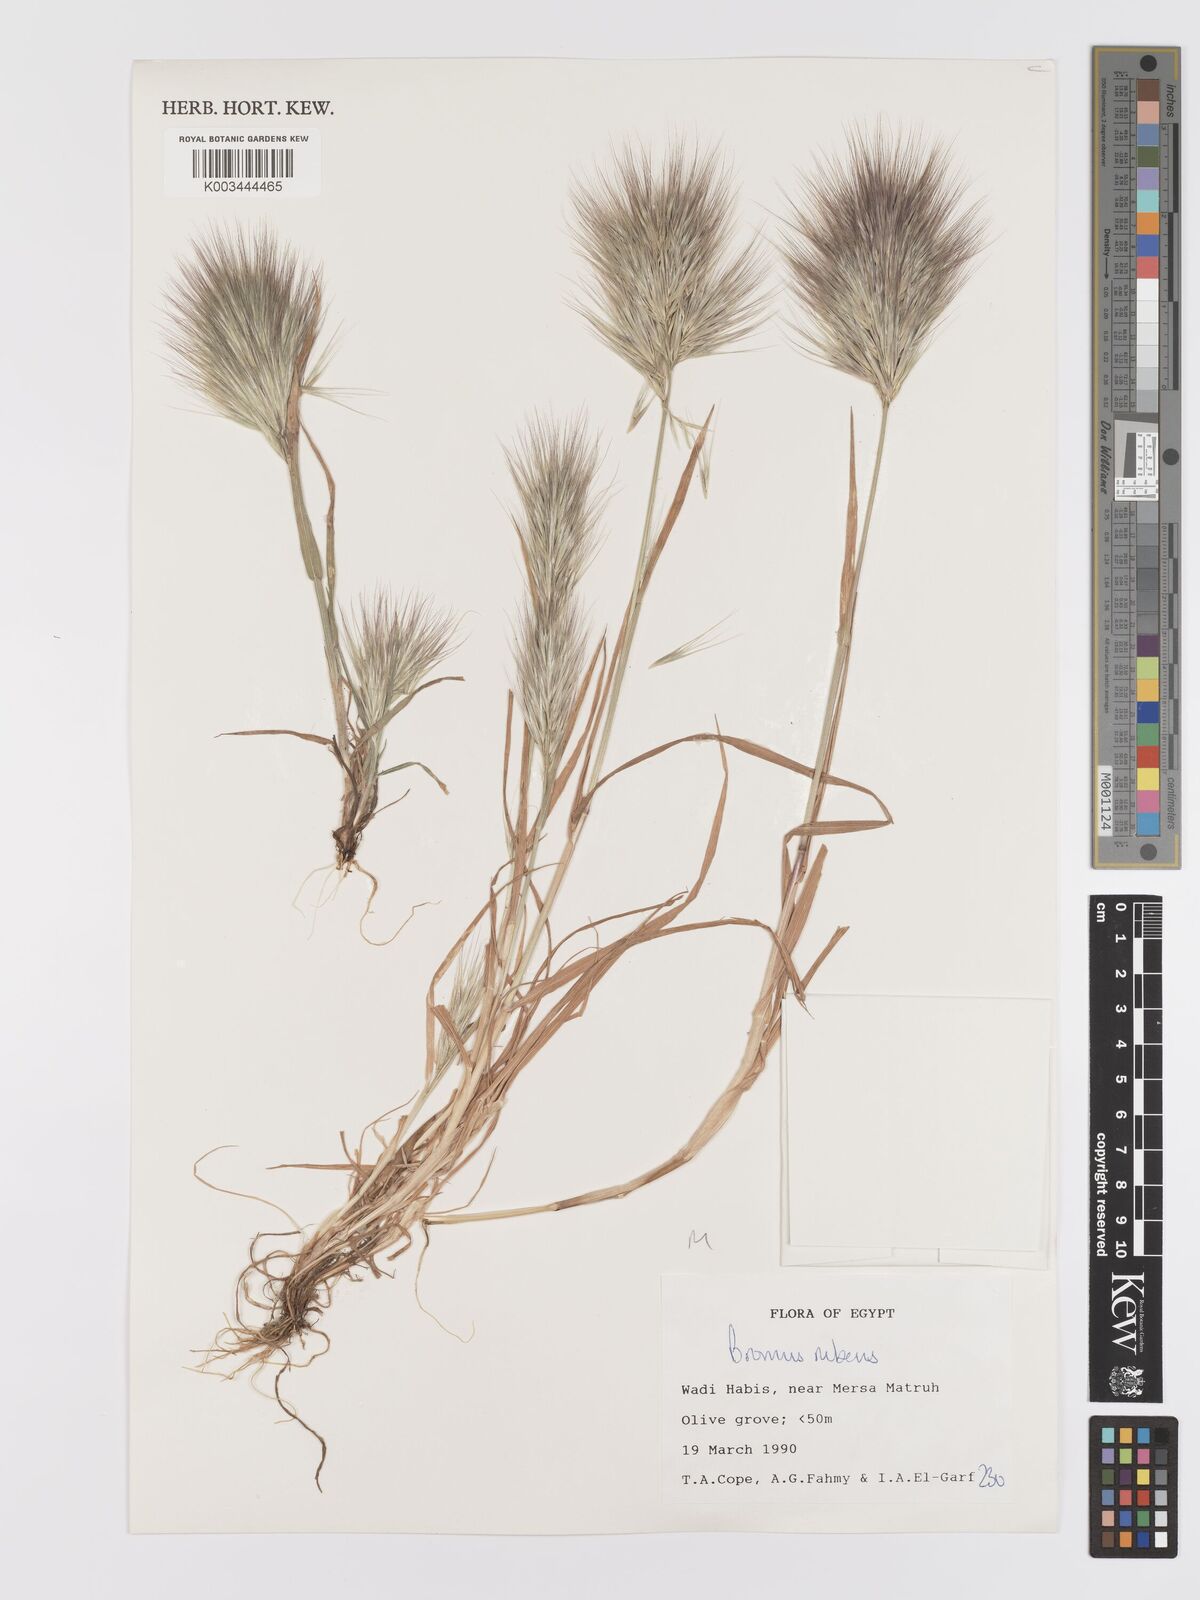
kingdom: Plantae
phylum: Tracheophyta
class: Liliopsida
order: Poales
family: Poaceae
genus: Bromus
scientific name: Bromus rubens
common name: Red brome
